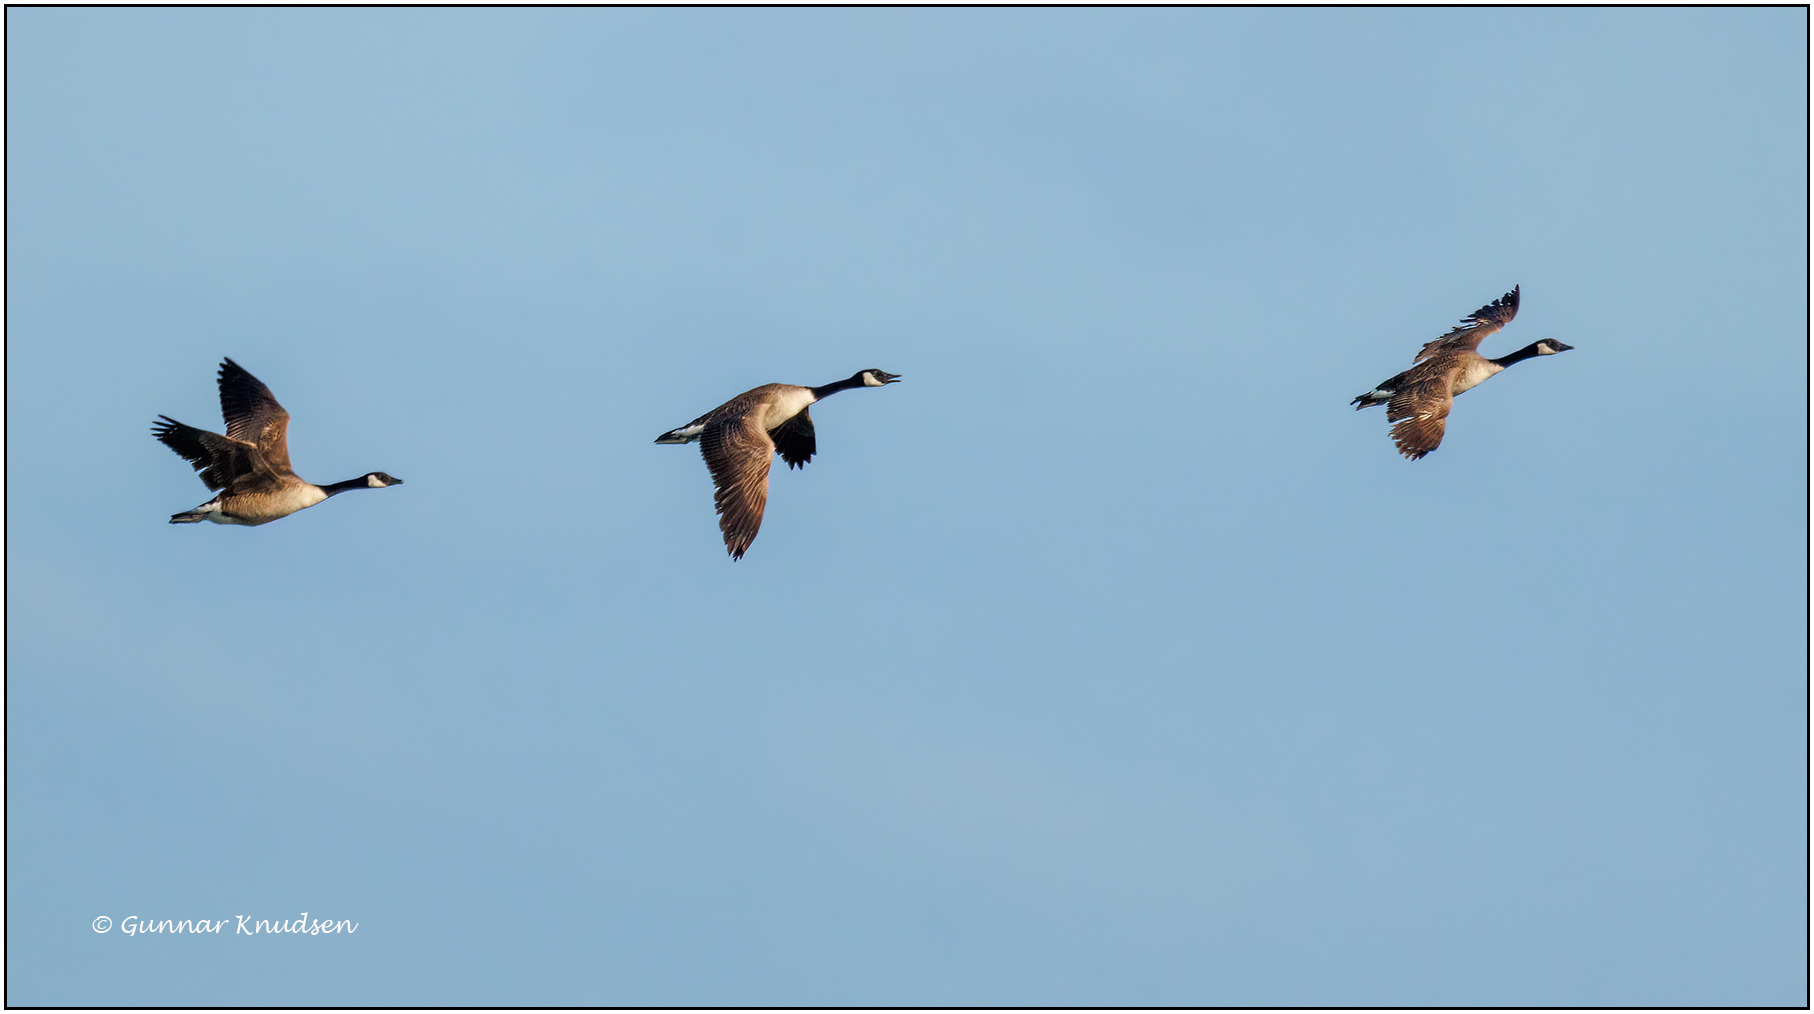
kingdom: Animalia
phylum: Chordata
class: Aves
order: Anseriformes
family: Anatidae
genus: Branta
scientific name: Branta canadensis
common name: Canadagås
